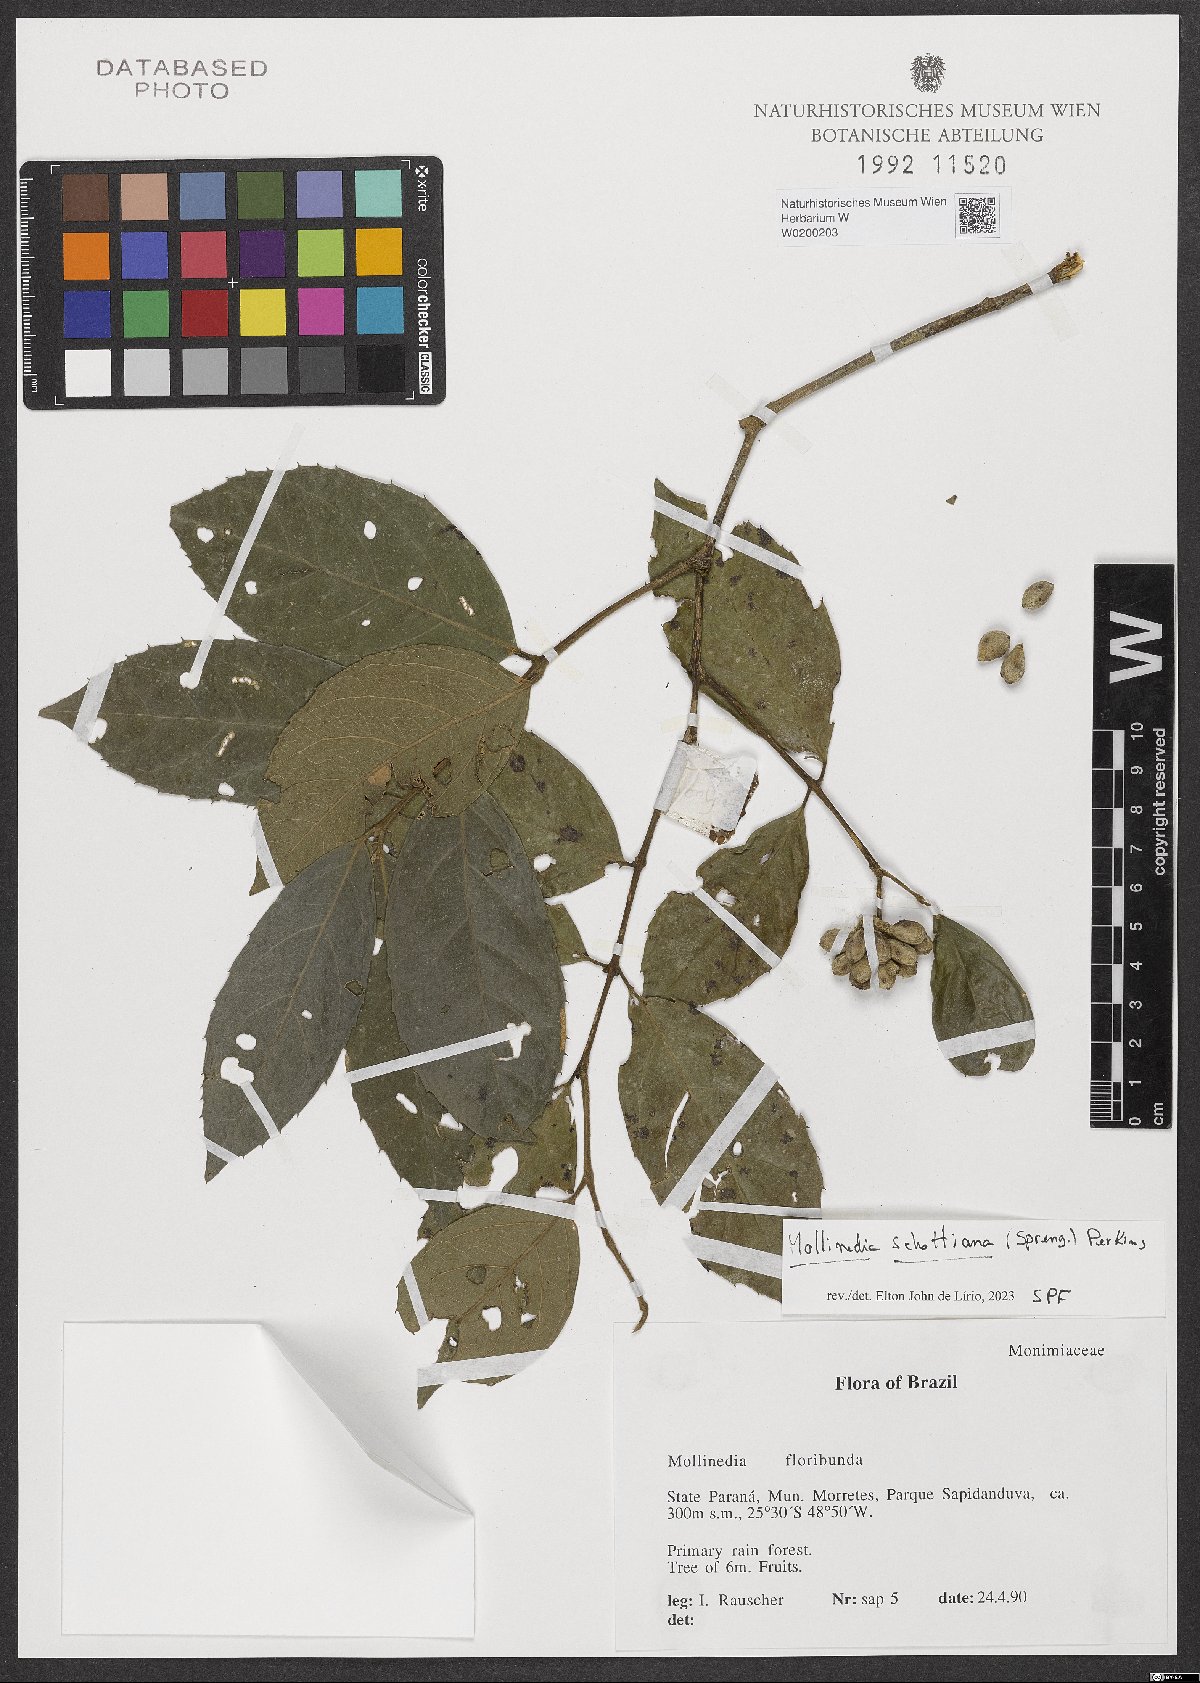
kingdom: Plantae
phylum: Tracheophyta
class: Magnoliopsida
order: Laurales
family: Monimiaceae
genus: Mollinedia
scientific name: Mollinedia umbellata
